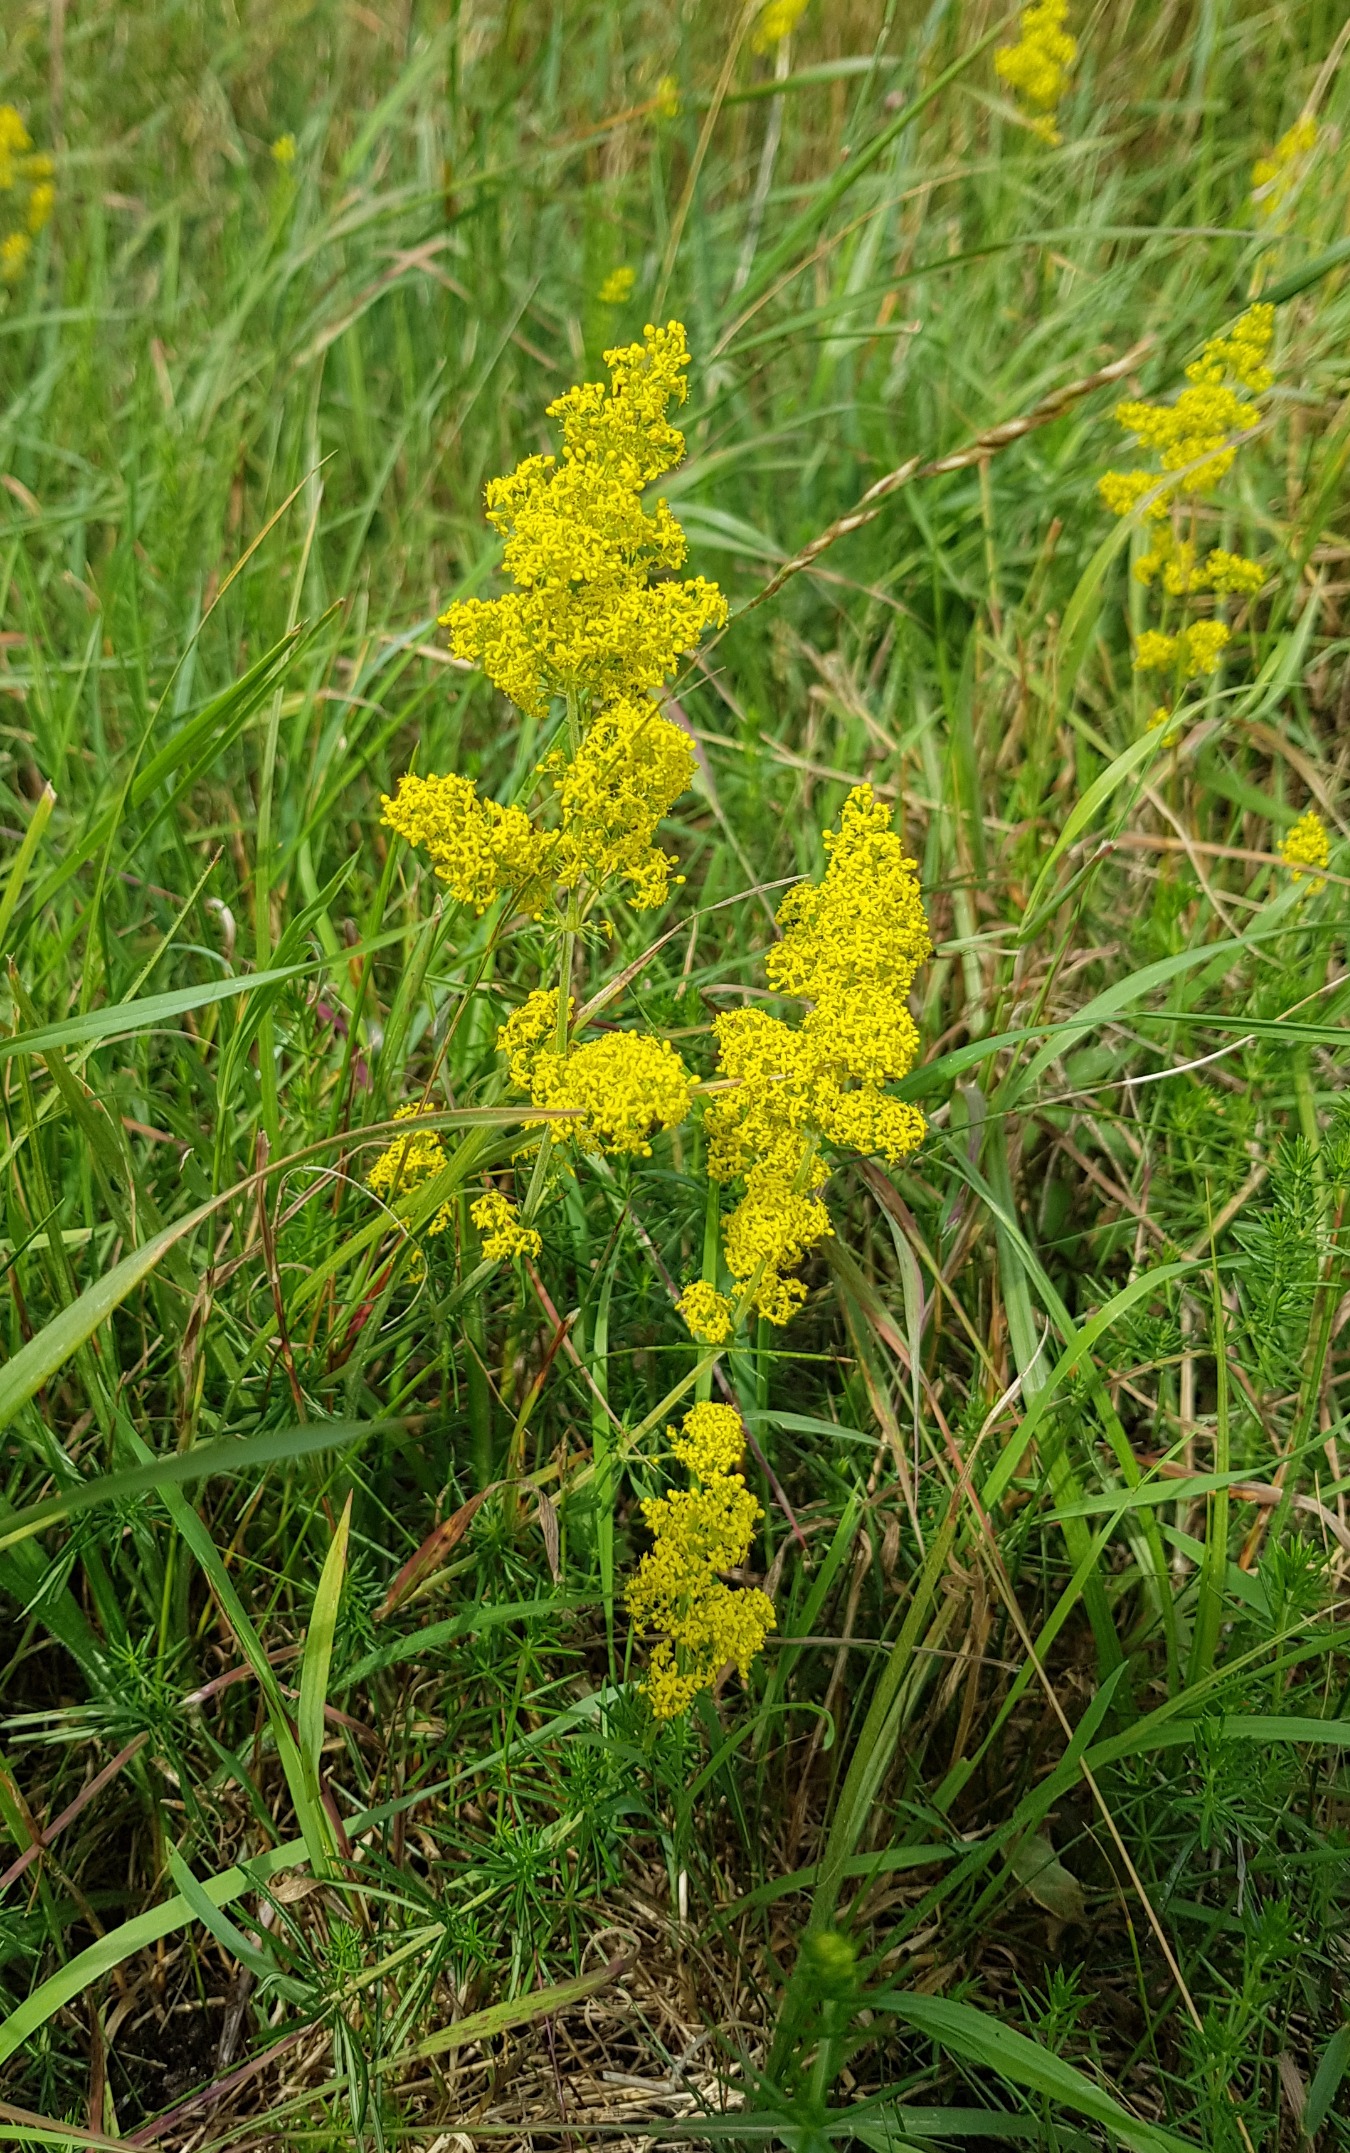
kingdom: Plantae
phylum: Tracheophyta
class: Magnoliopsida
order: Gentianales
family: Rubiaceae
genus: Galium
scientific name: Galium verum
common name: Gul snerre
